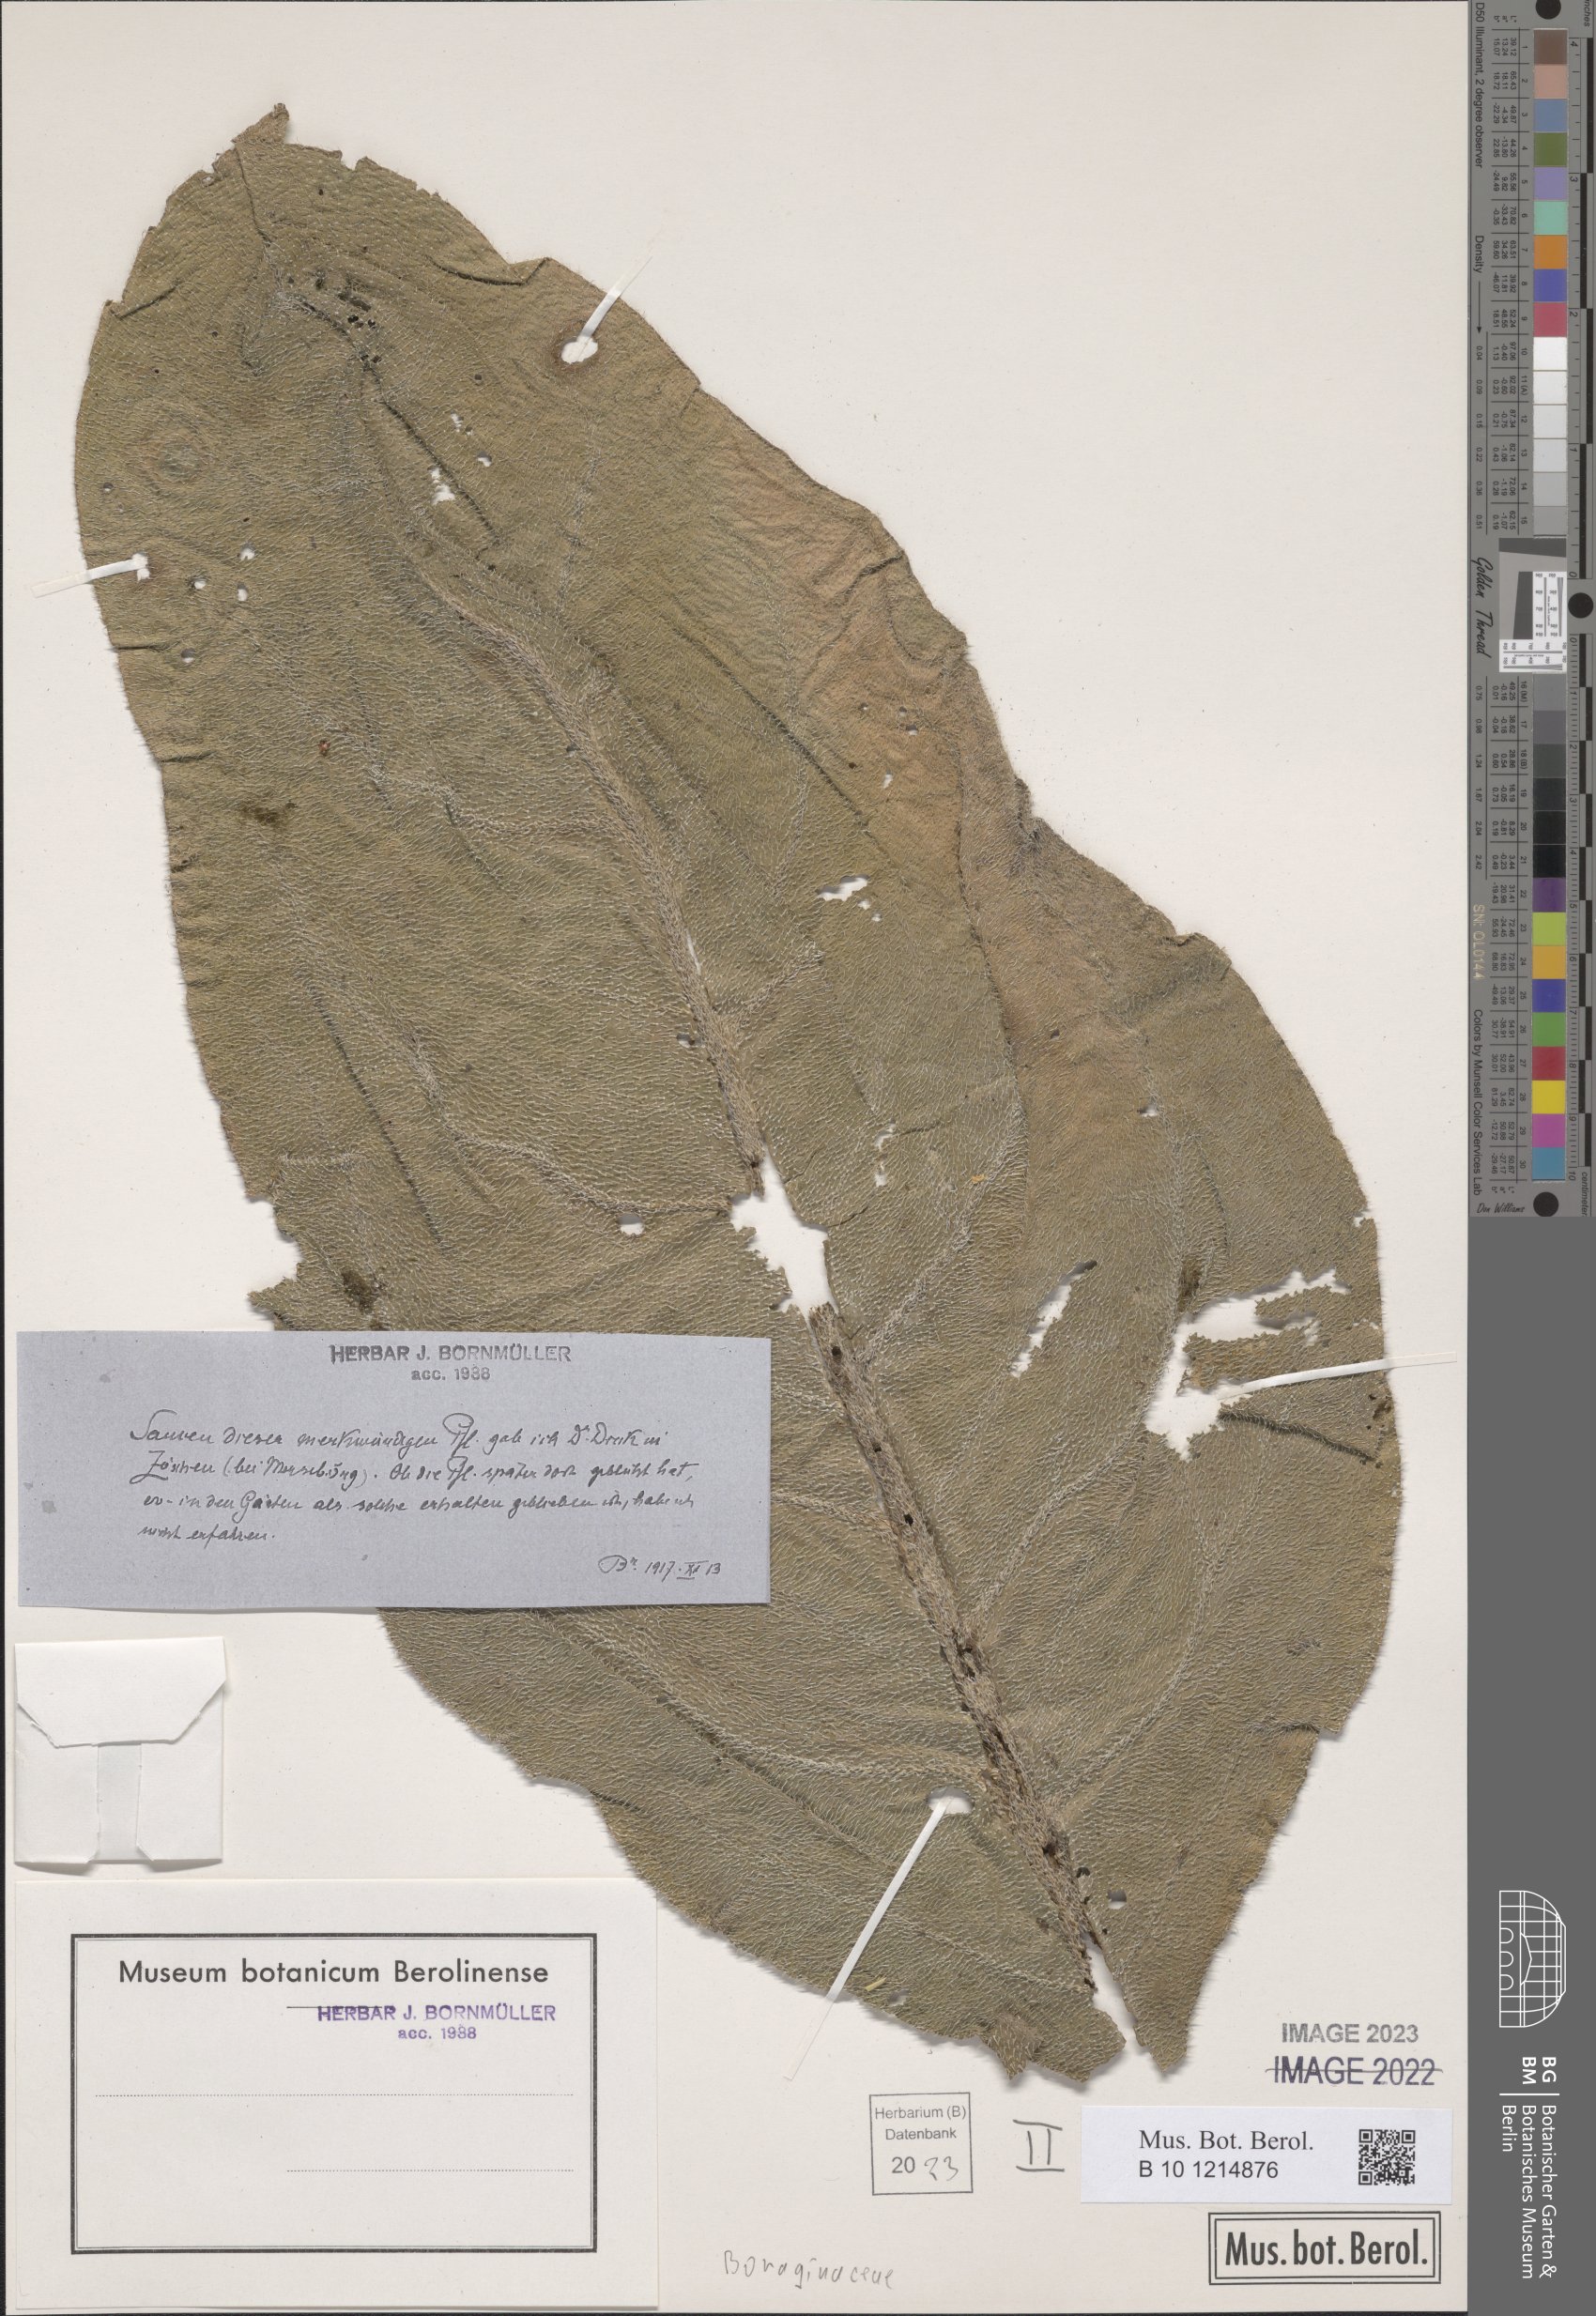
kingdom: Plantae
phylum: Tracheophyta
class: Magnoliopsida
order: Boraginales
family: Boraginaceae
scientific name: Boraginaceae
